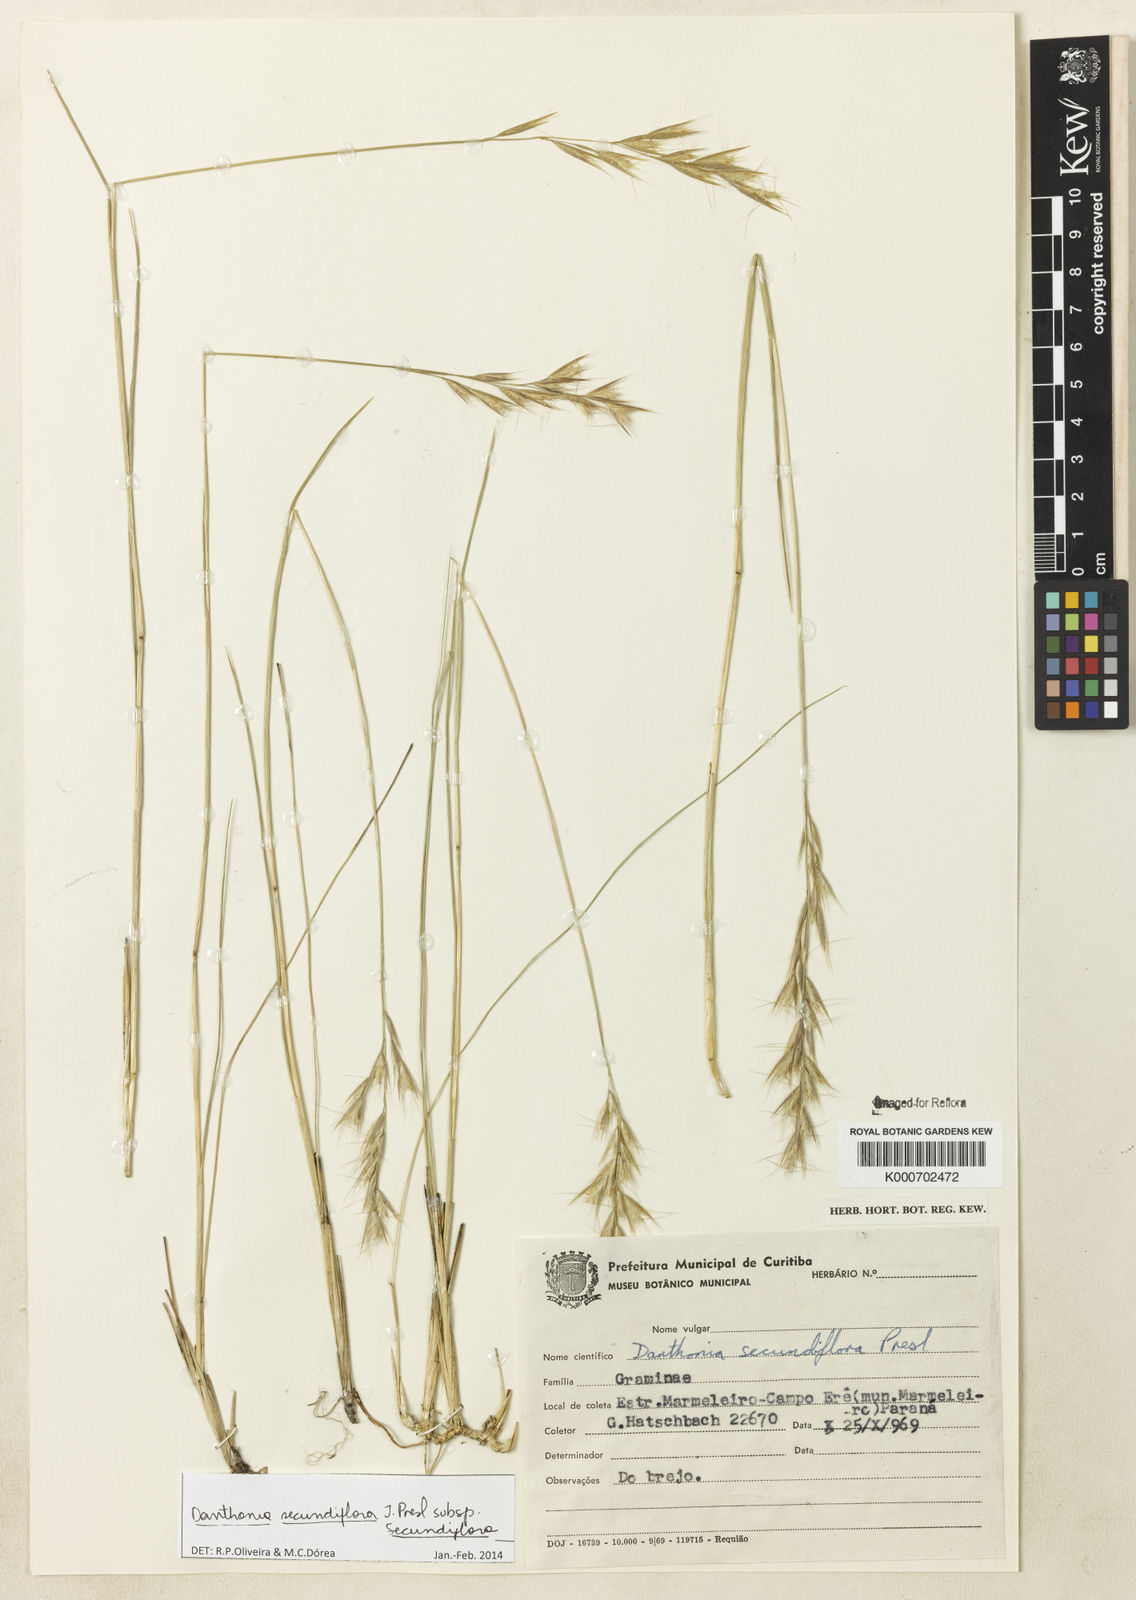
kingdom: Plantae
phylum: Tracheophyta
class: Liliopsida
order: Poales
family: Poaceae
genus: Danthonia
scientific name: Danthonia secundiflora
